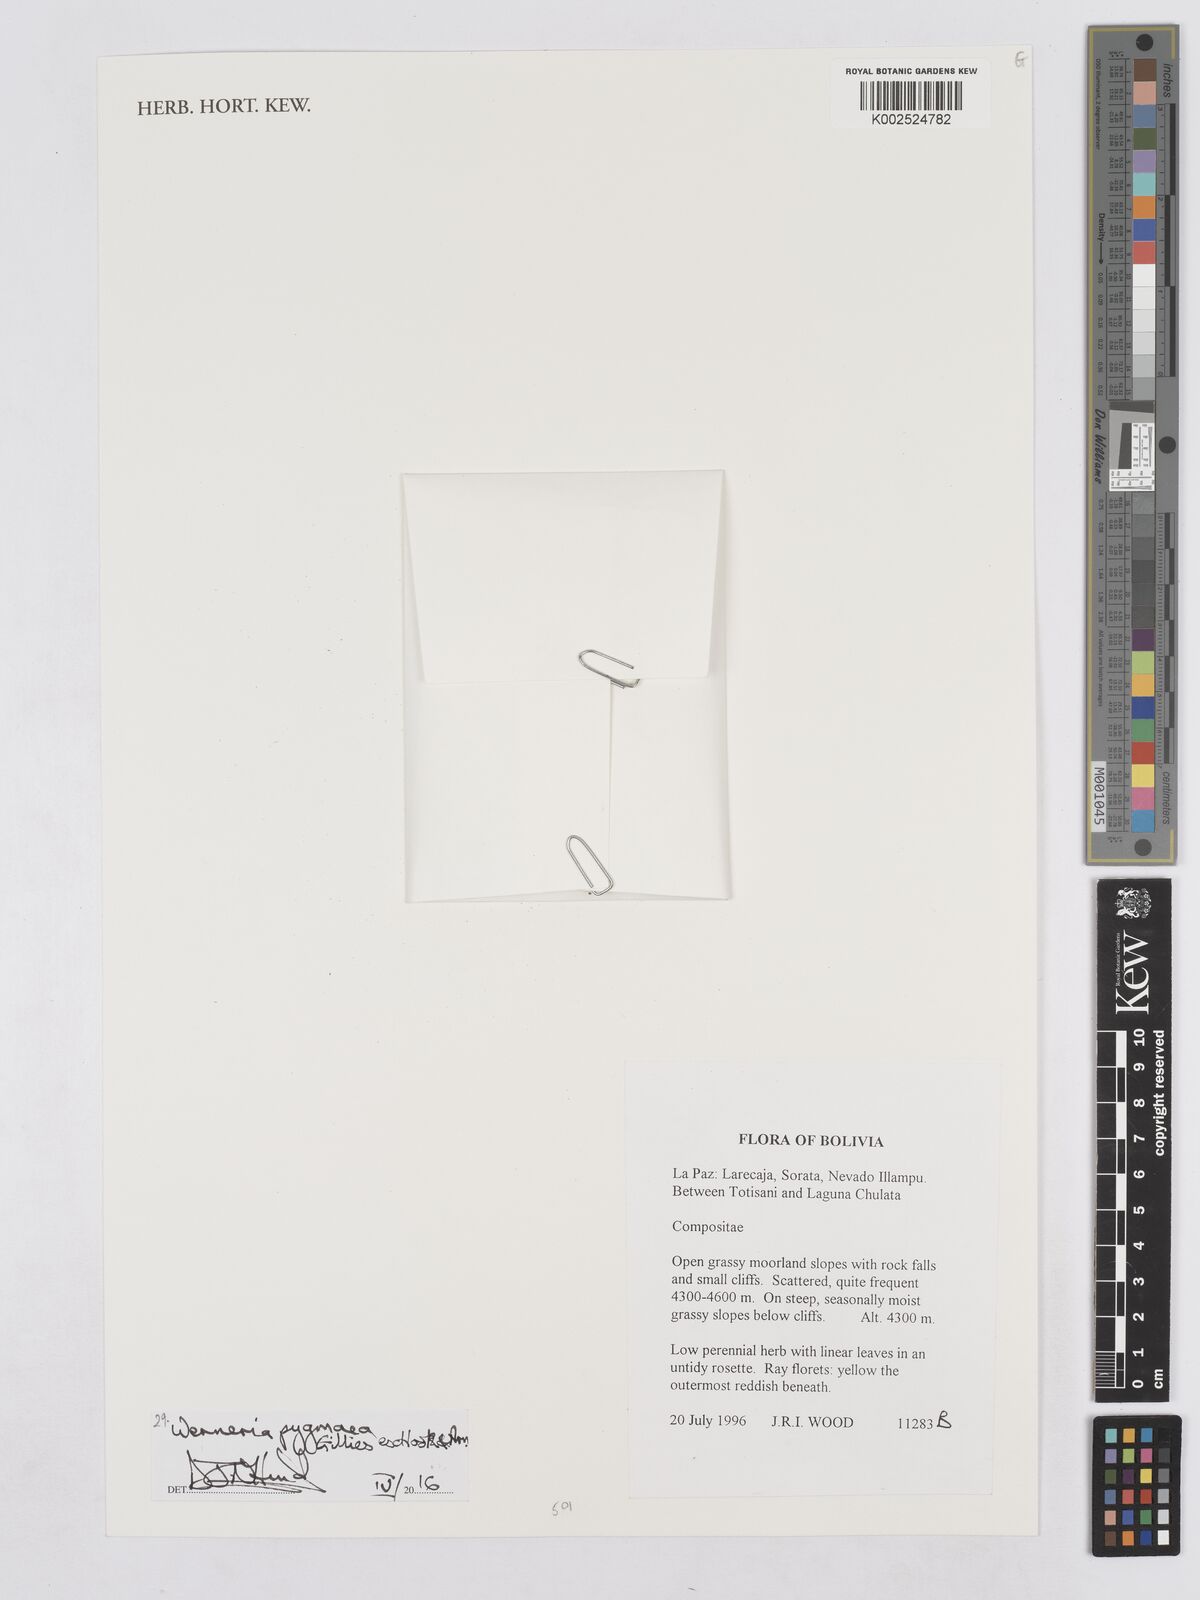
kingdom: Plantae
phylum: Tracheophyta
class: Magnoliopsida
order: Asterales
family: Asteraceae
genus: Rockhausenia
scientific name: Rockhausenia pygmaea
